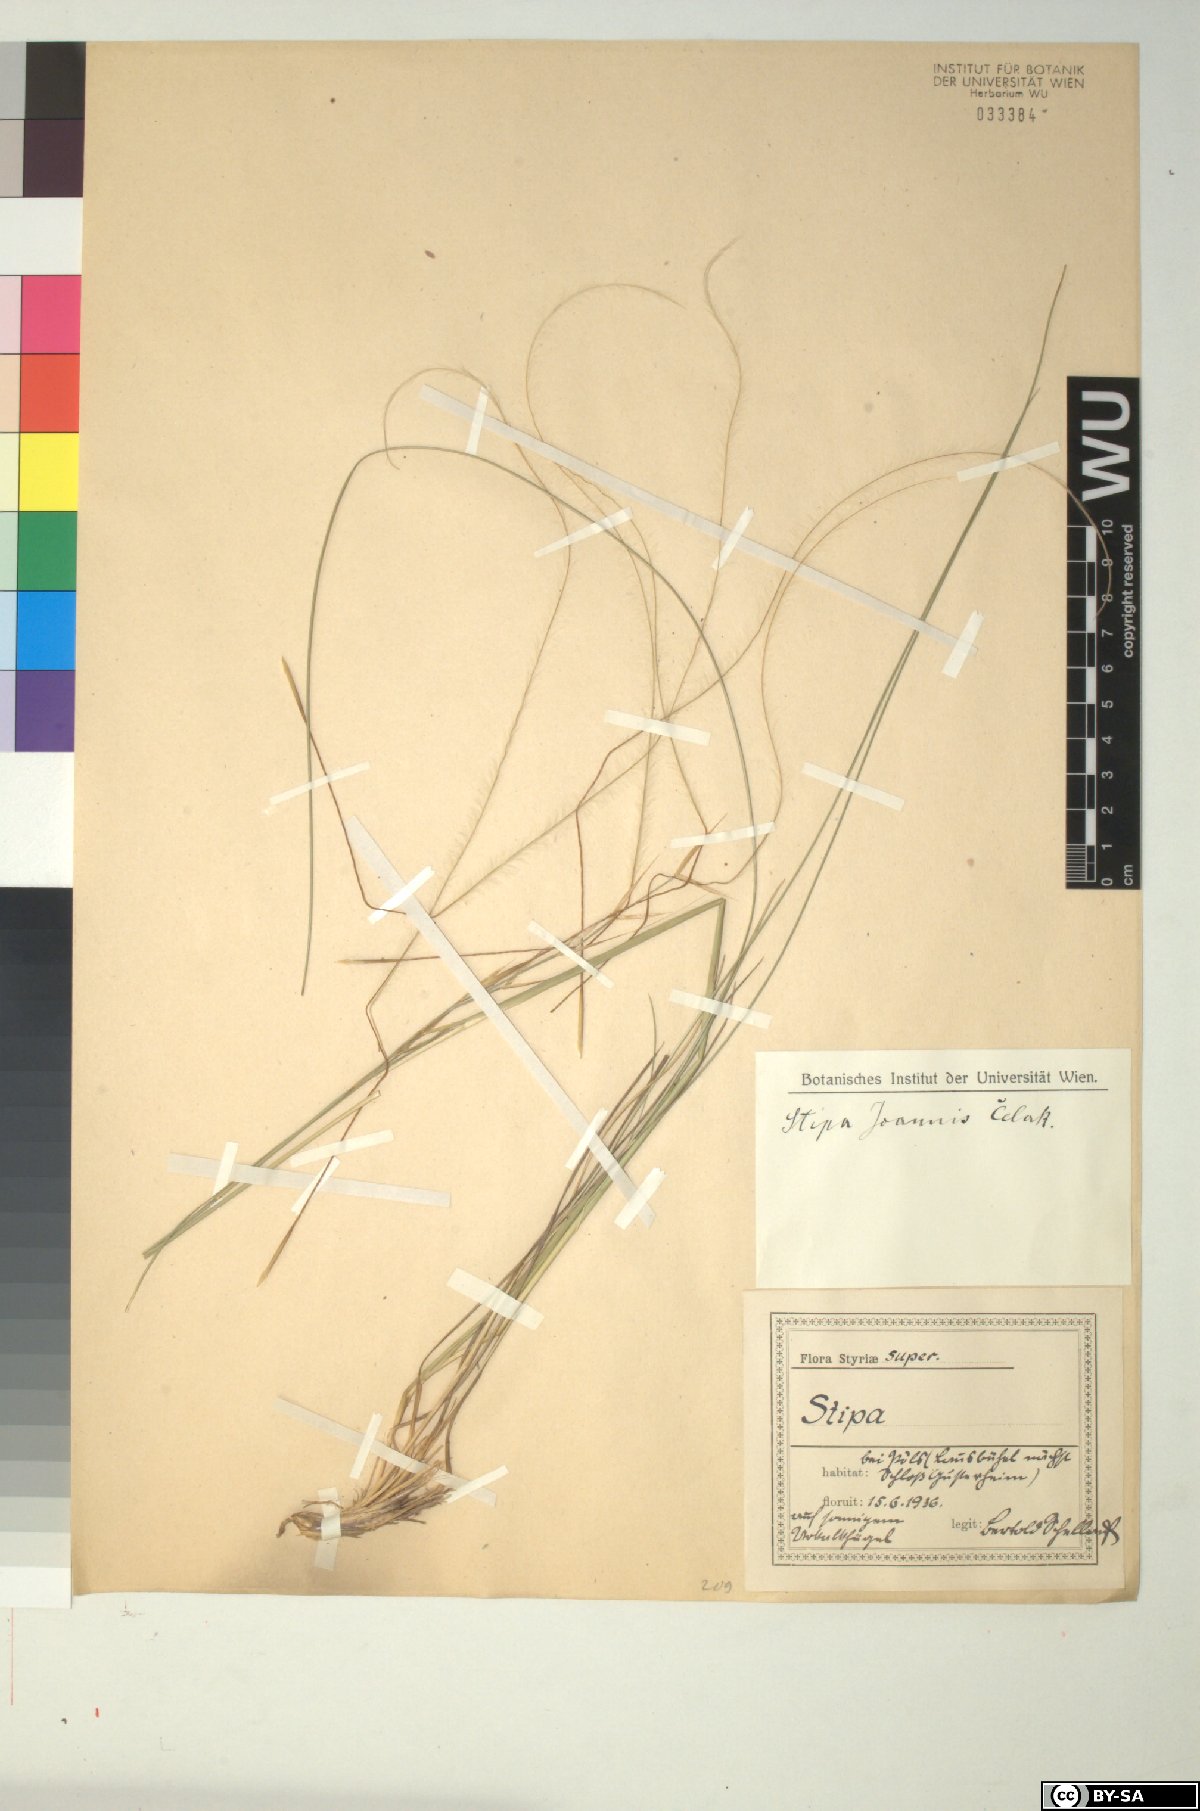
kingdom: Plantae
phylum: Tracheophyta
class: Liliopsida
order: Poales
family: Poaceae
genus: Stipa
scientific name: Stipa pennata
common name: European feather grass
